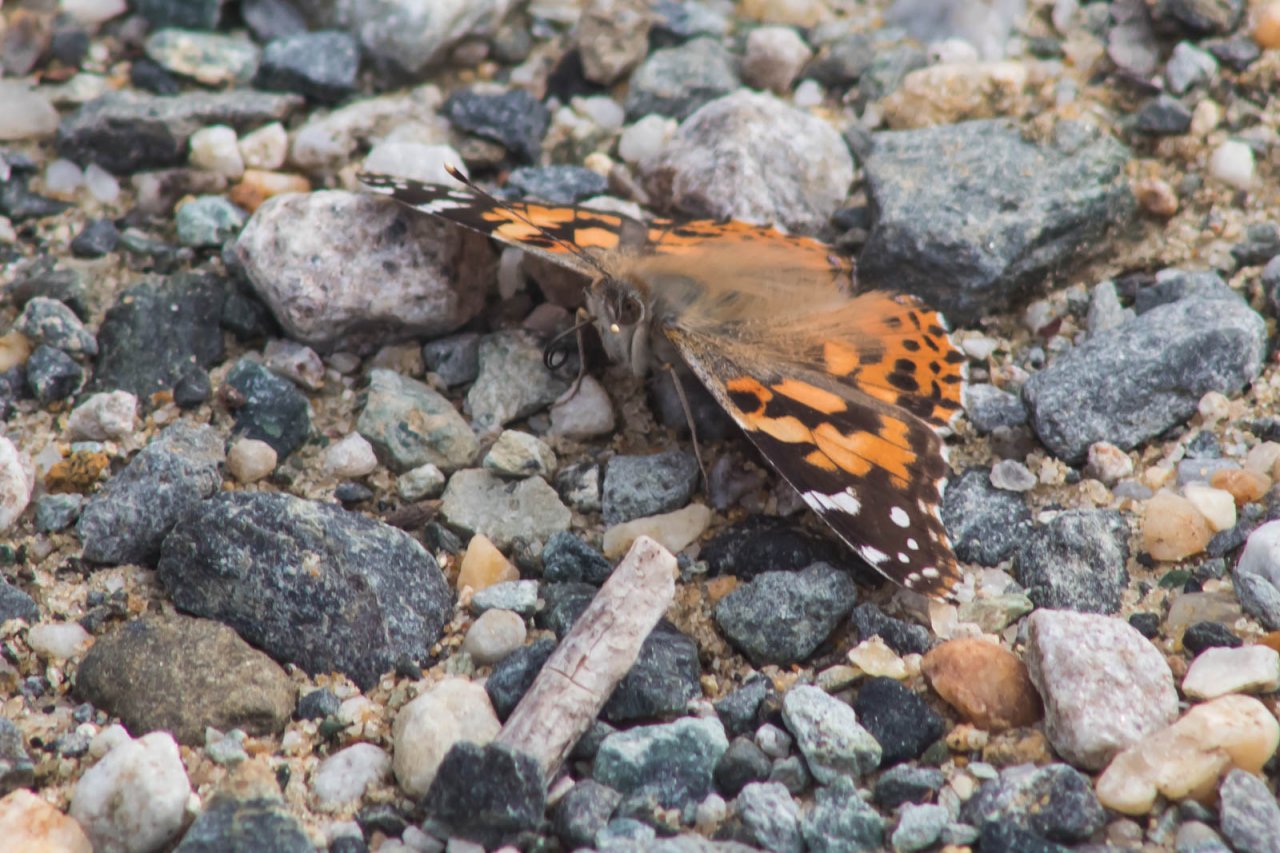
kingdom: Animalia
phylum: Arthropoda
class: Insecta
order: Lepidoptera
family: Nymphalidae
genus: Vanessa
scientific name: Vanessa cardui
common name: Painted Lady
